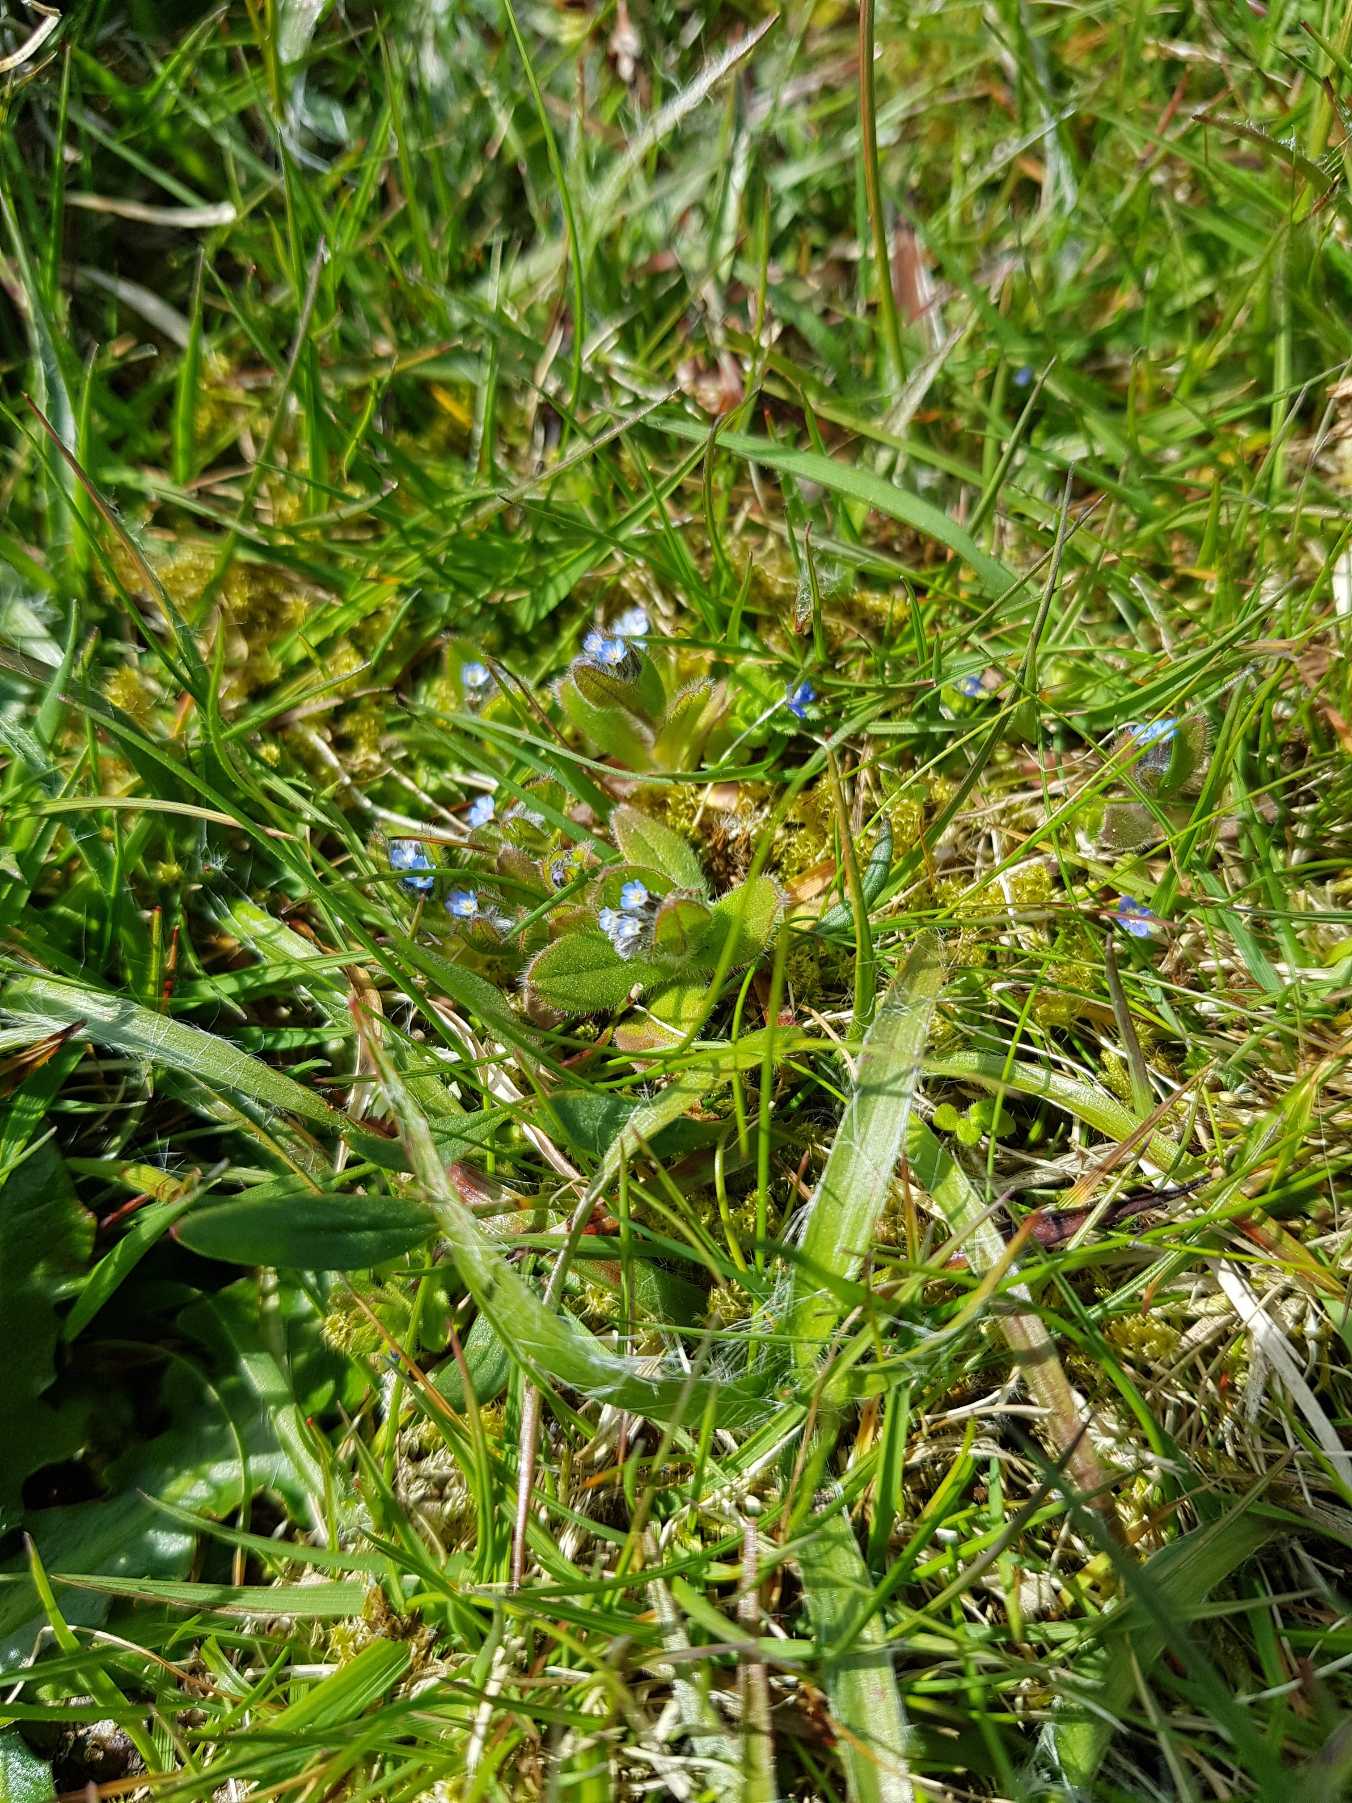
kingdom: Plantae
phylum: Tracheophyta
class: Magnoliopsida
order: Boraginales
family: Boraginaceae
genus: Myosotis
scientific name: Myosotis ramosissima
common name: Bakke-forglemmigej
